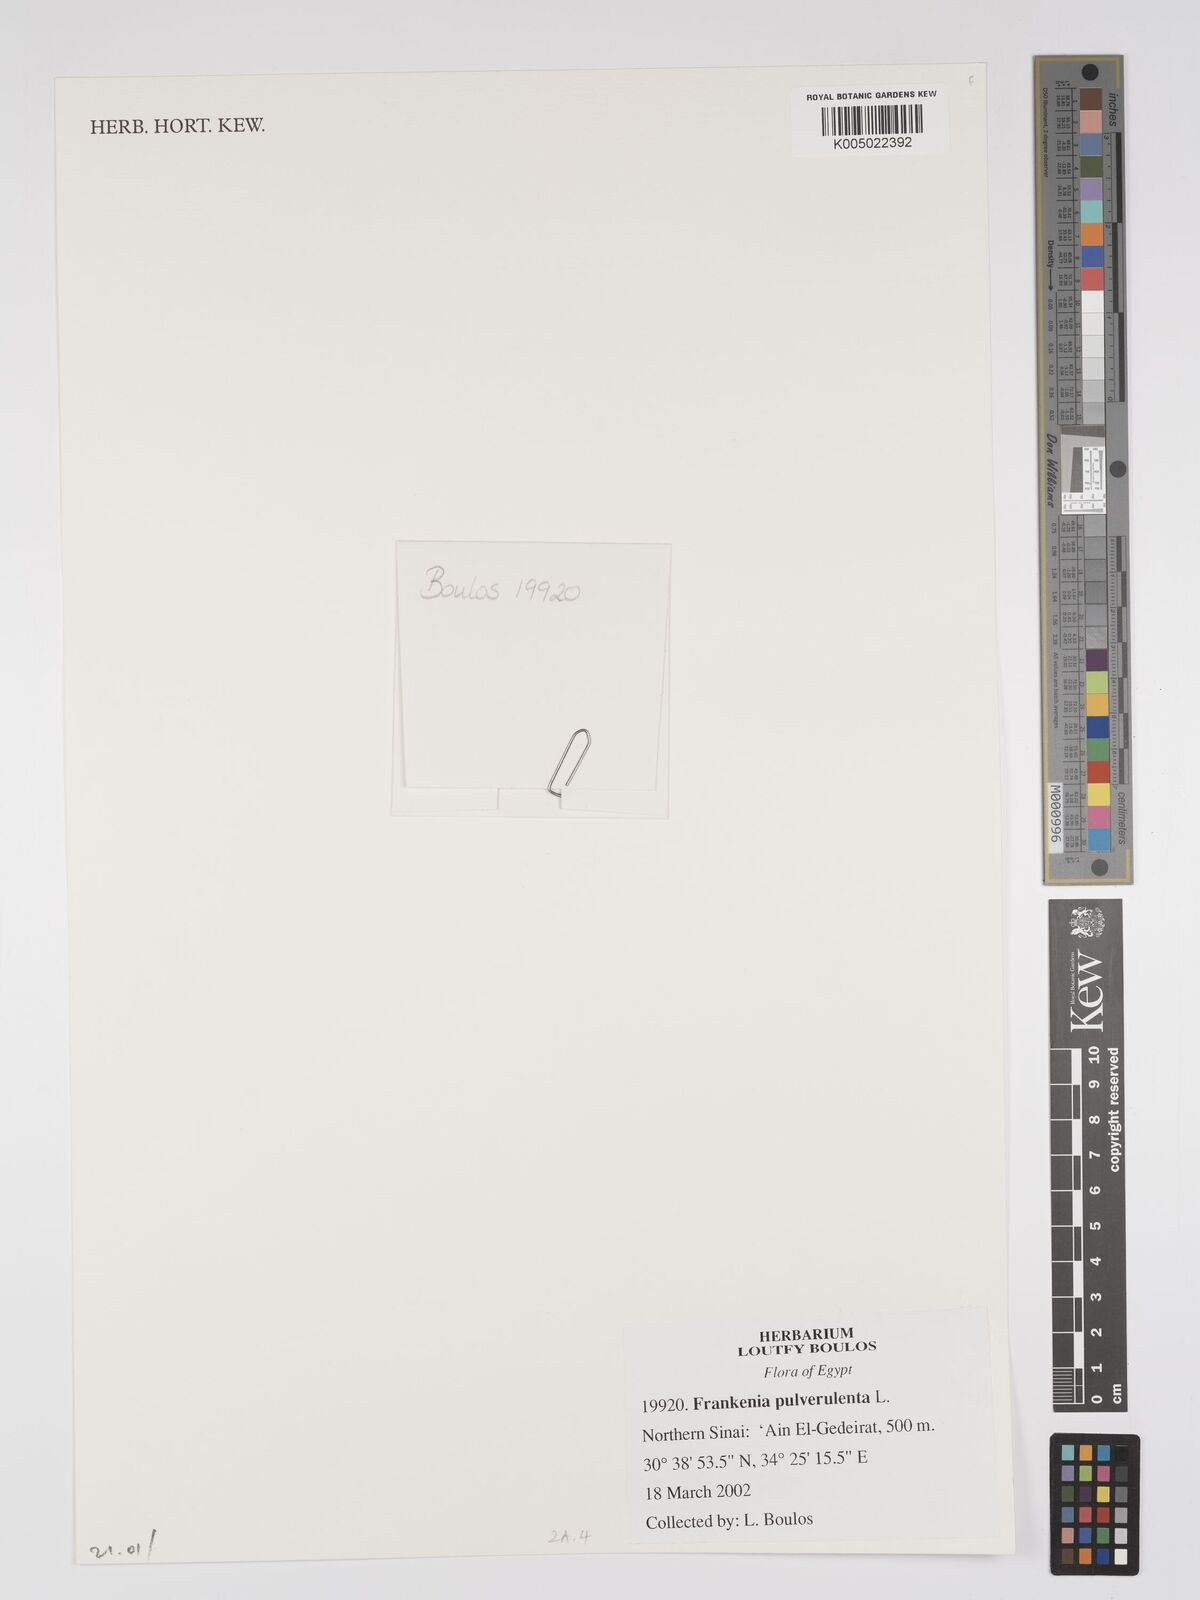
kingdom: Plantae
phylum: Tracheophyta
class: Magnoliopsida
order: Caryophyllales
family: Frankeniaceae
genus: Frankenia
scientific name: Frankenia pulverulenta
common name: European seaheath
